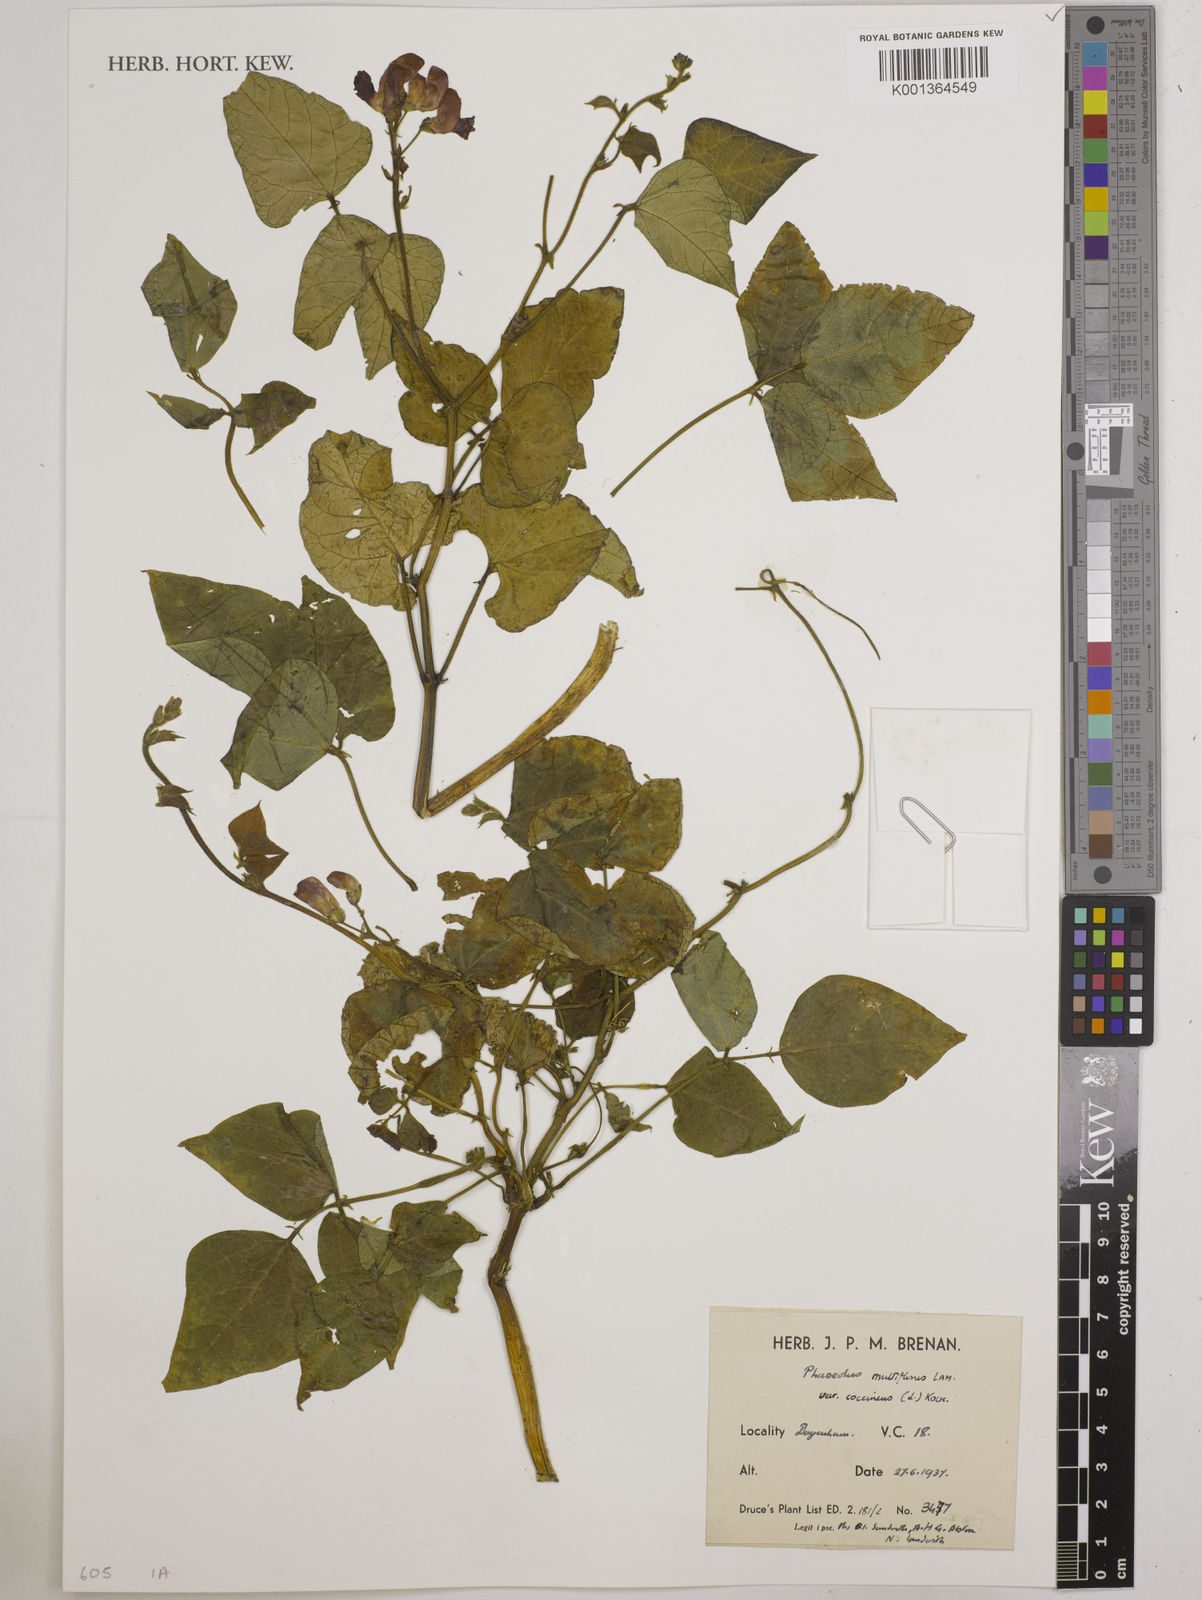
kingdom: Plantae
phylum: Tracheophyta
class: Magnoliopsida
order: Fabales
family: Fabaceae
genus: Phaseolus
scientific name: Phaseolus coccineus
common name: Runner bean
